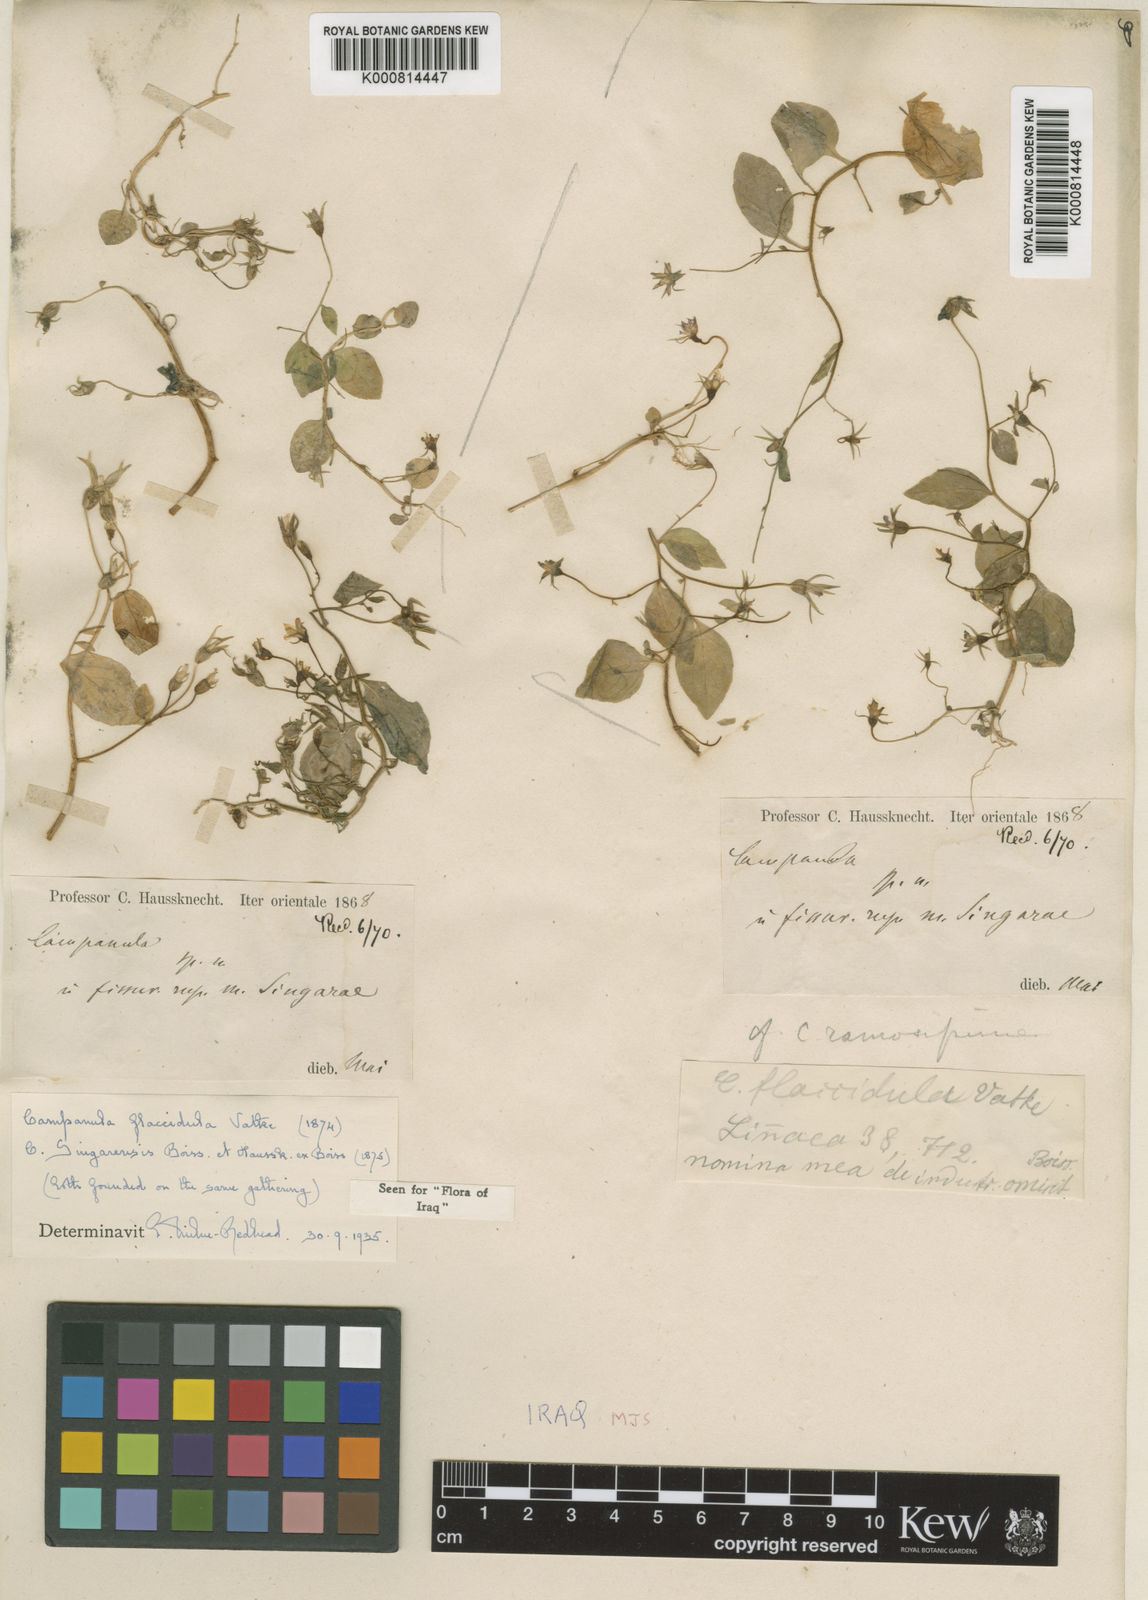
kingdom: Plantae
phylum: Tracheophyta
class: Magnoliopsida
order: Asterales
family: Campanulaceae
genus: Campanula
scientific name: Campanula flaccidula
